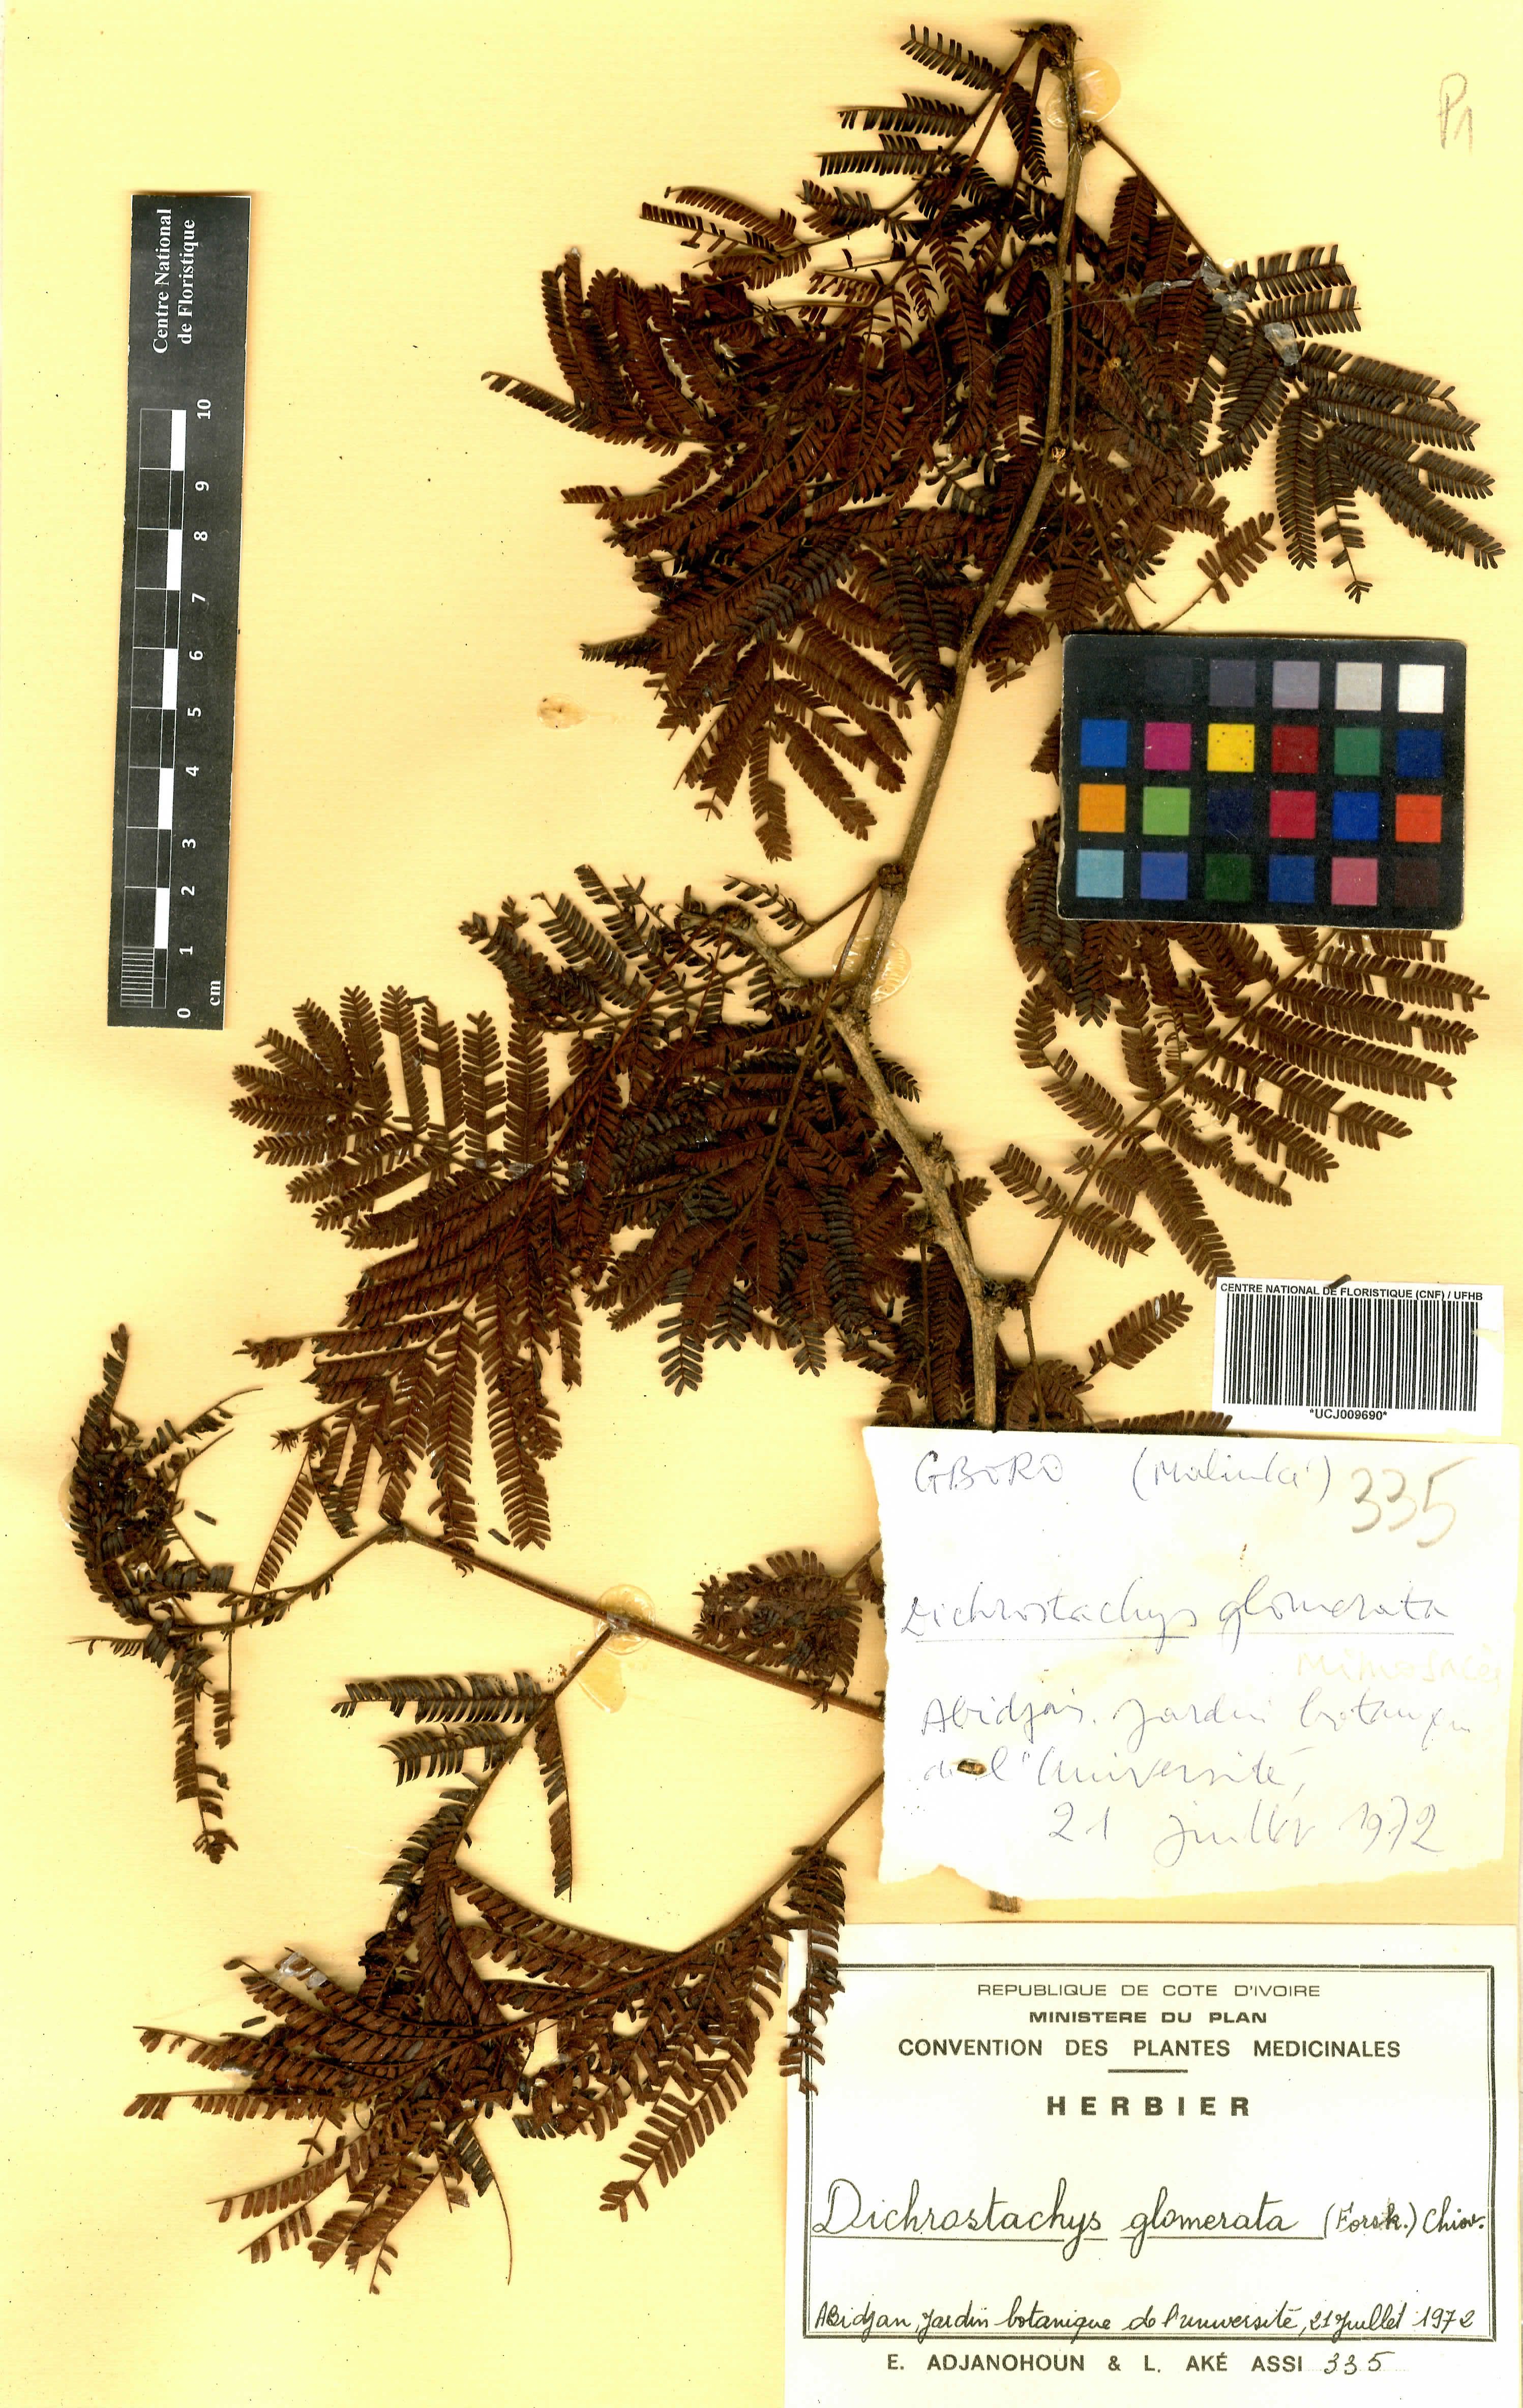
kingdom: Plantae
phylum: Tracheophyta
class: Magnoliopsida
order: Fabales
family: Fabaceae
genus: Dichrostachys
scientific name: Dichrostachys cinerea
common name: Sicklebush
